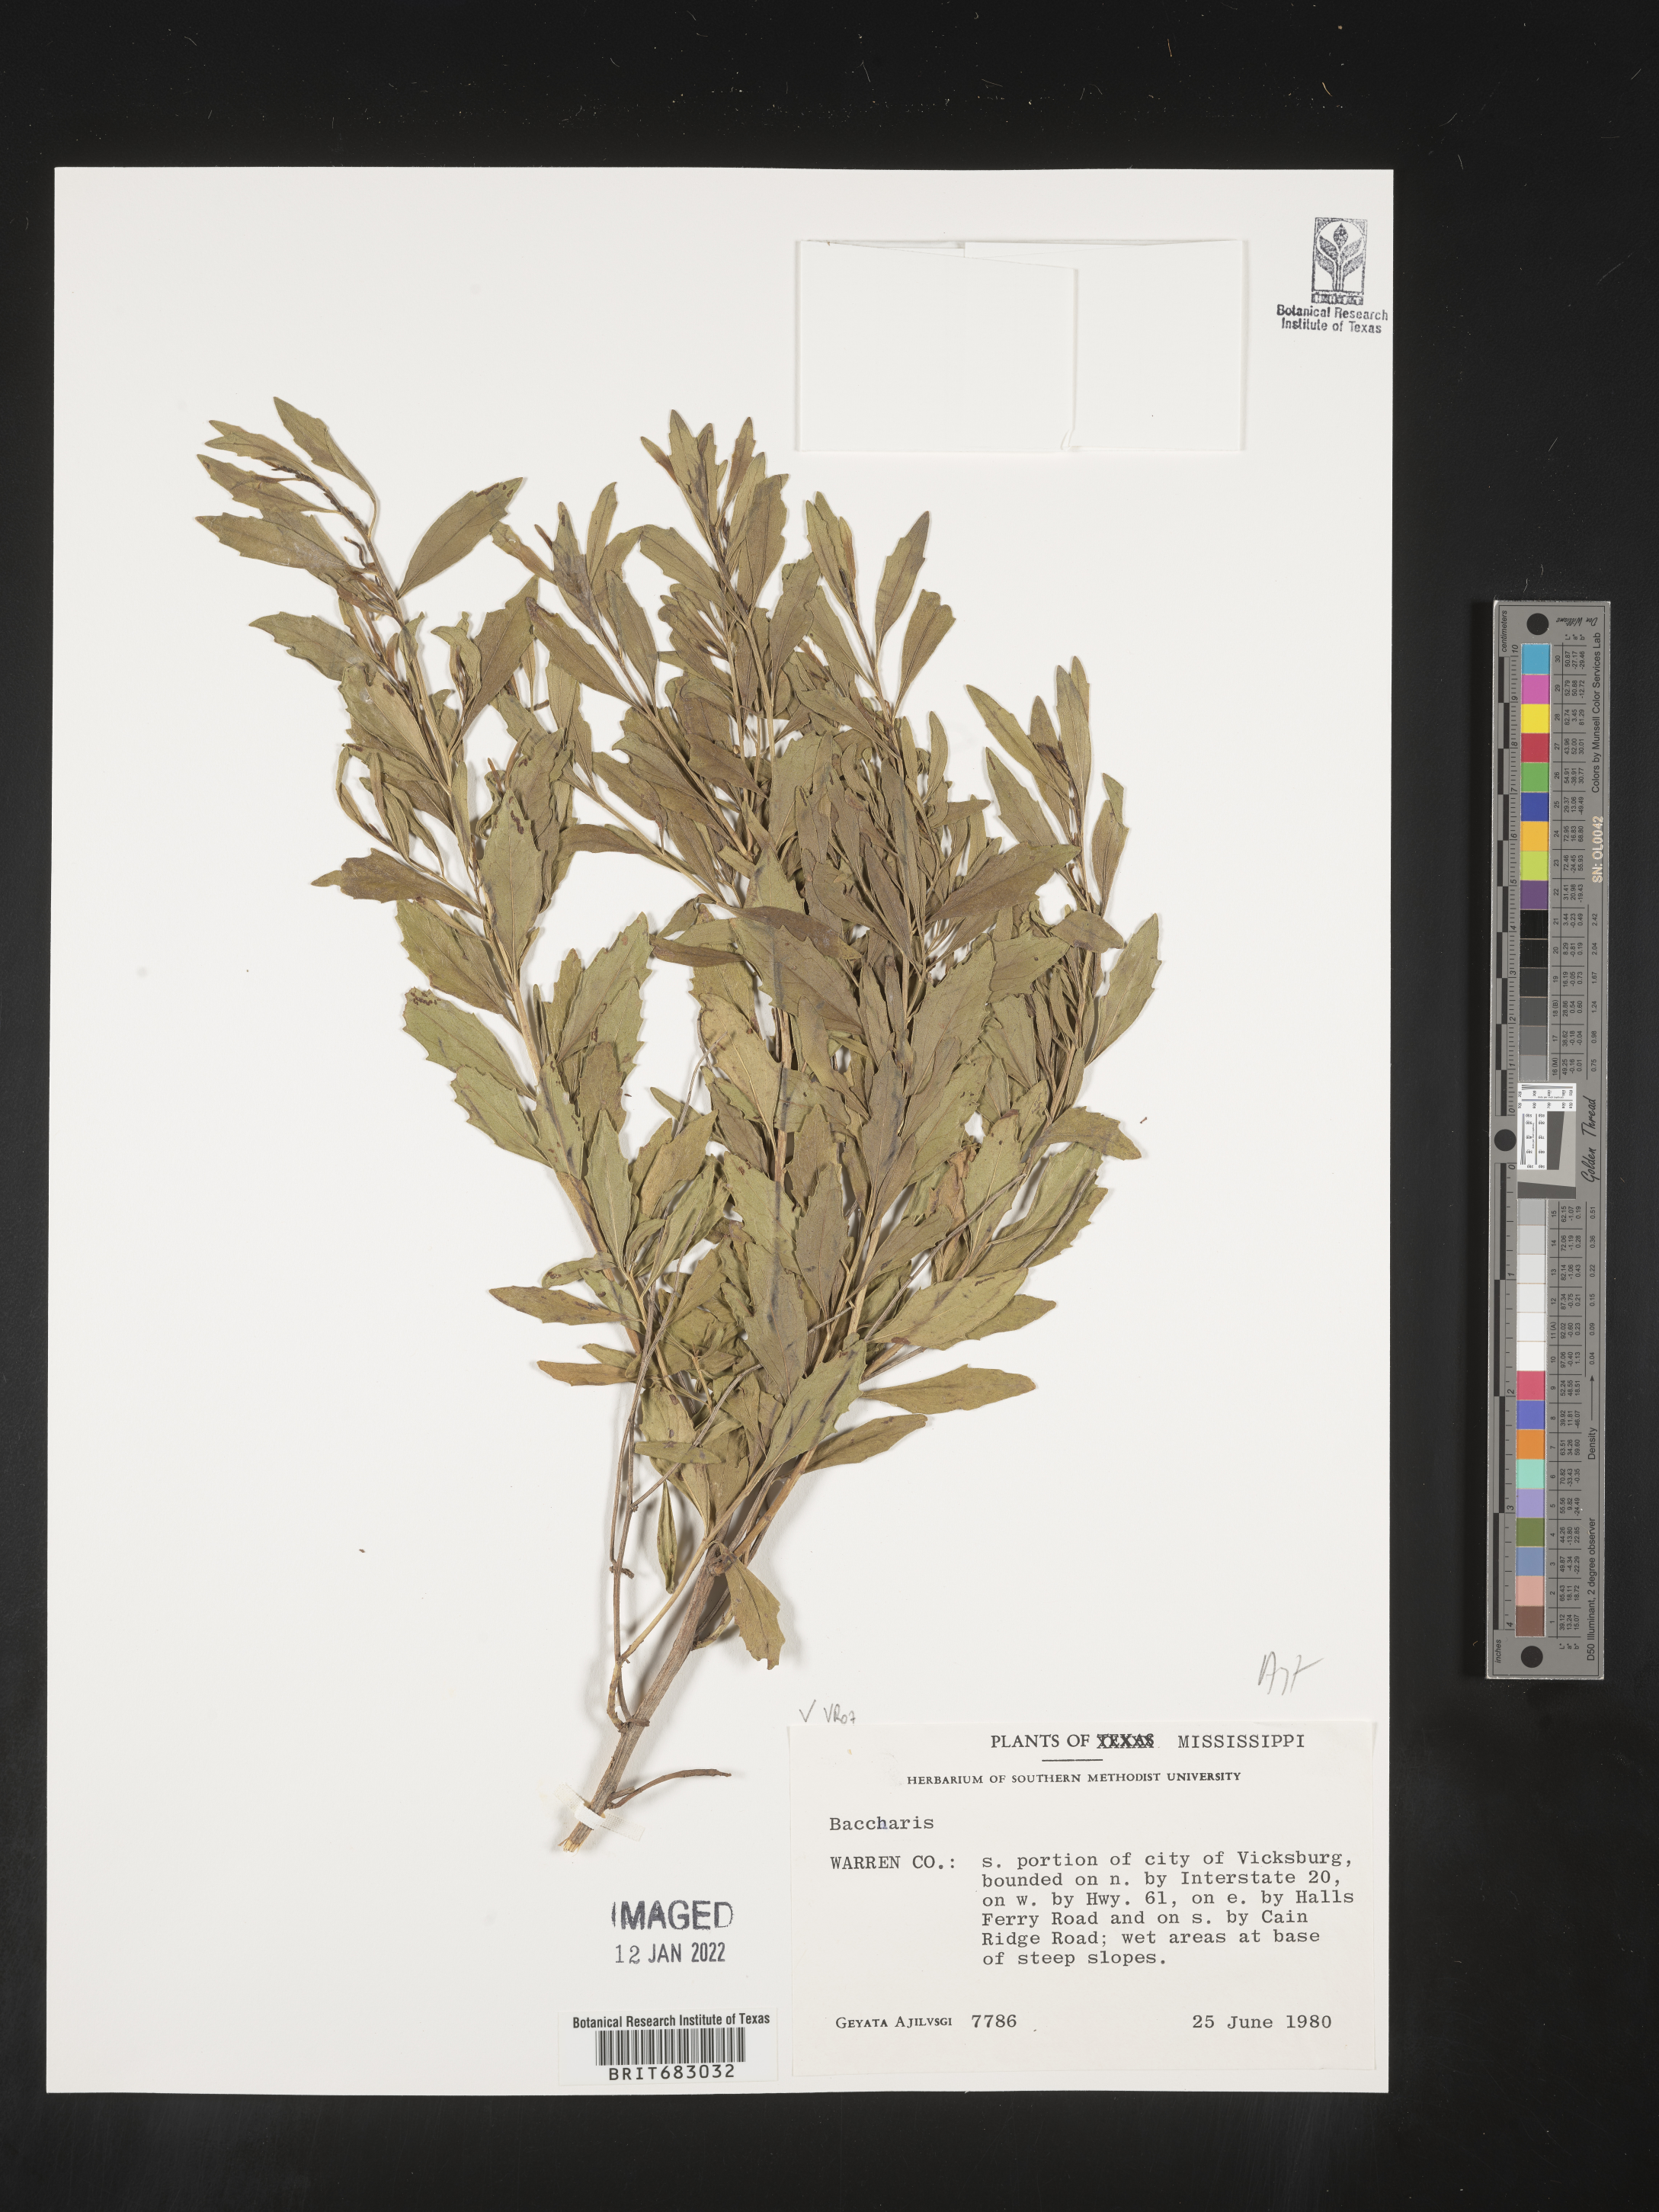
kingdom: Plantae
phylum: Tracheophyta
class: Magnoliopsida
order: Asterales
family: Asteraceae
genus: Baccharis
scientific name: Baccharis
